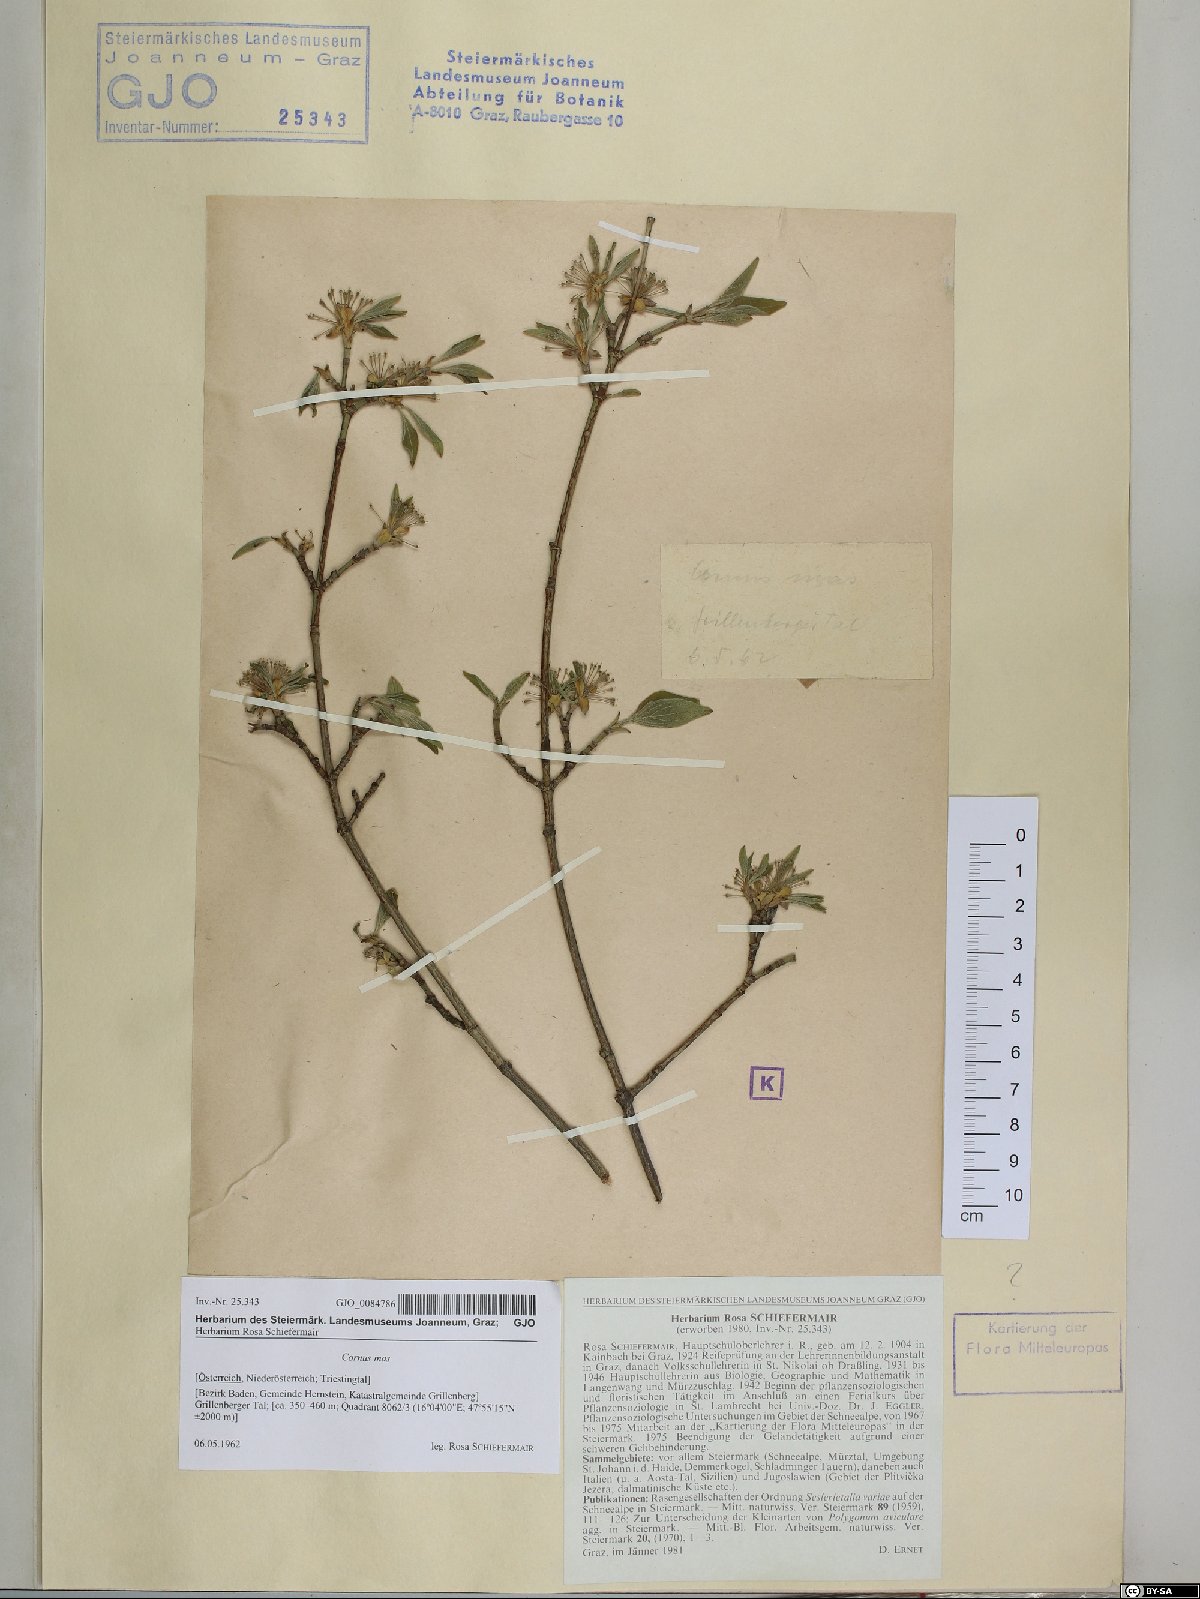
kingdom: Plantae
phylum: Tracheophyta
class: Magnoliopsida
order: Cornales
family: Cornaceae
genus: Cornus
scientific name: Cornus mas
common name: Cornelian-cherry
